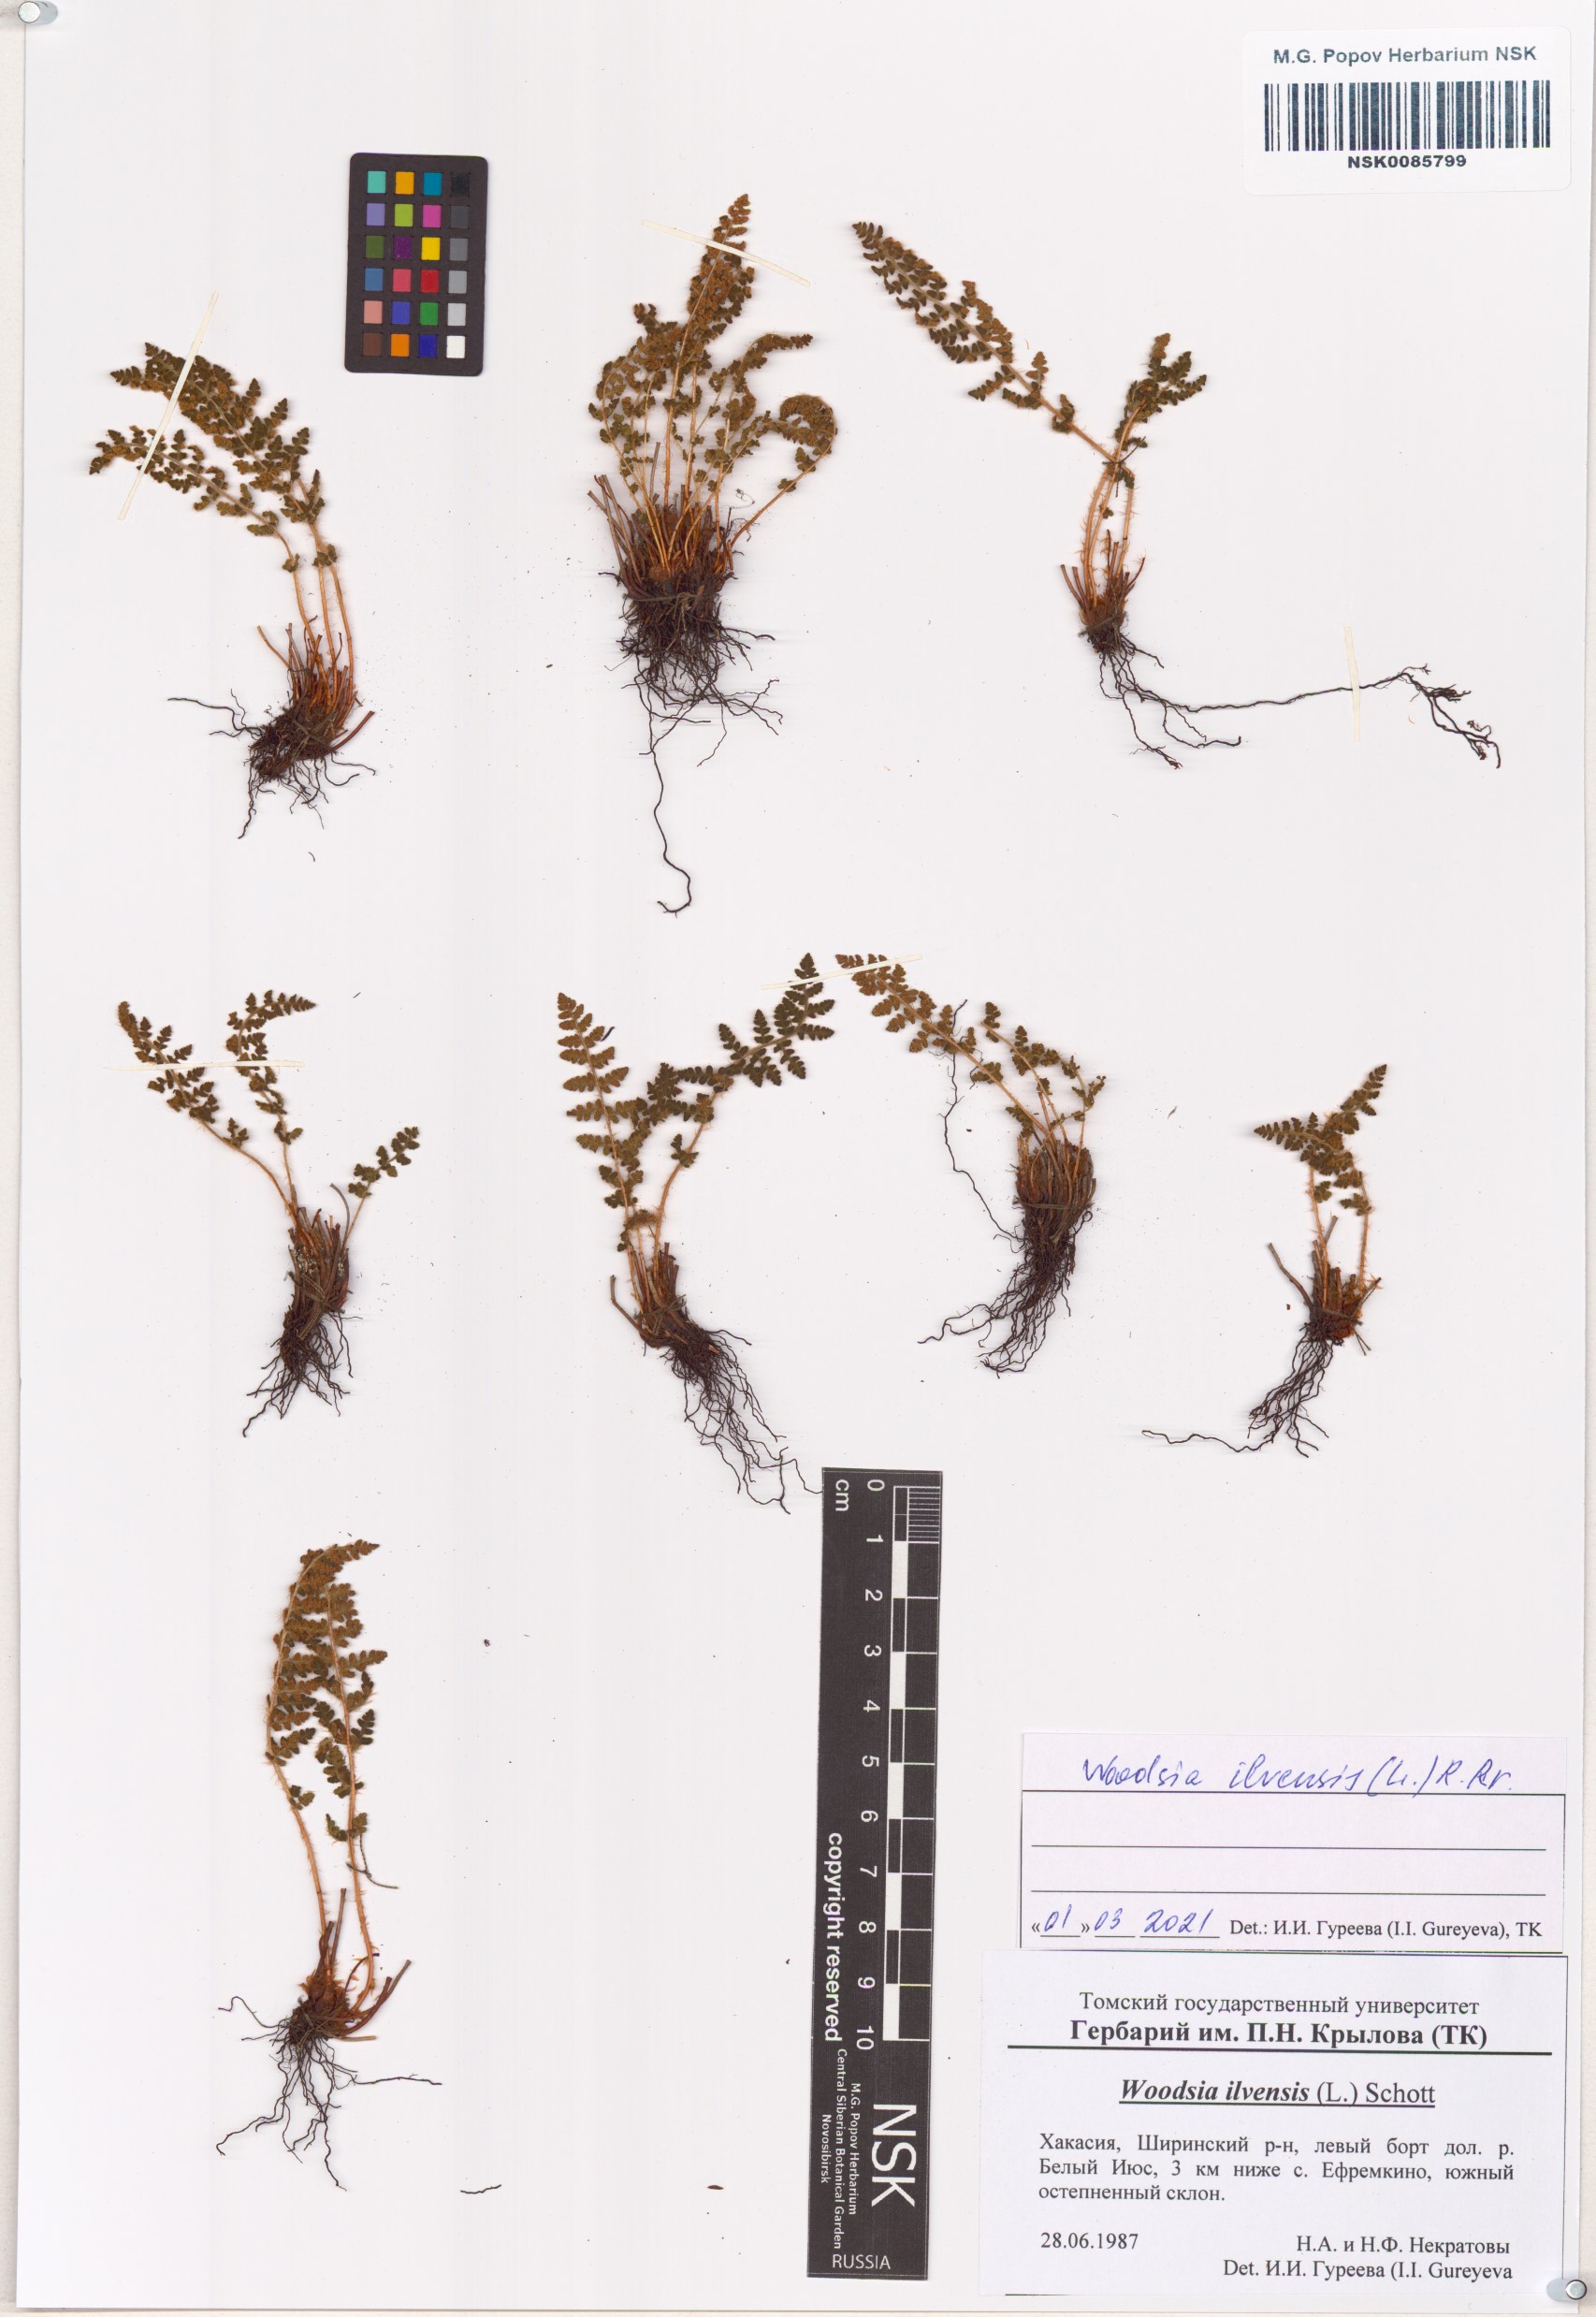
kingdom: Plantae
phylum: Tracheophyta
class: Polypodiopsida
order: Polypodiales
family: Woodsiaceae
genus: Woodsia
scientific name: Woodsia ilvensis
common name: Fragrant woodsia
